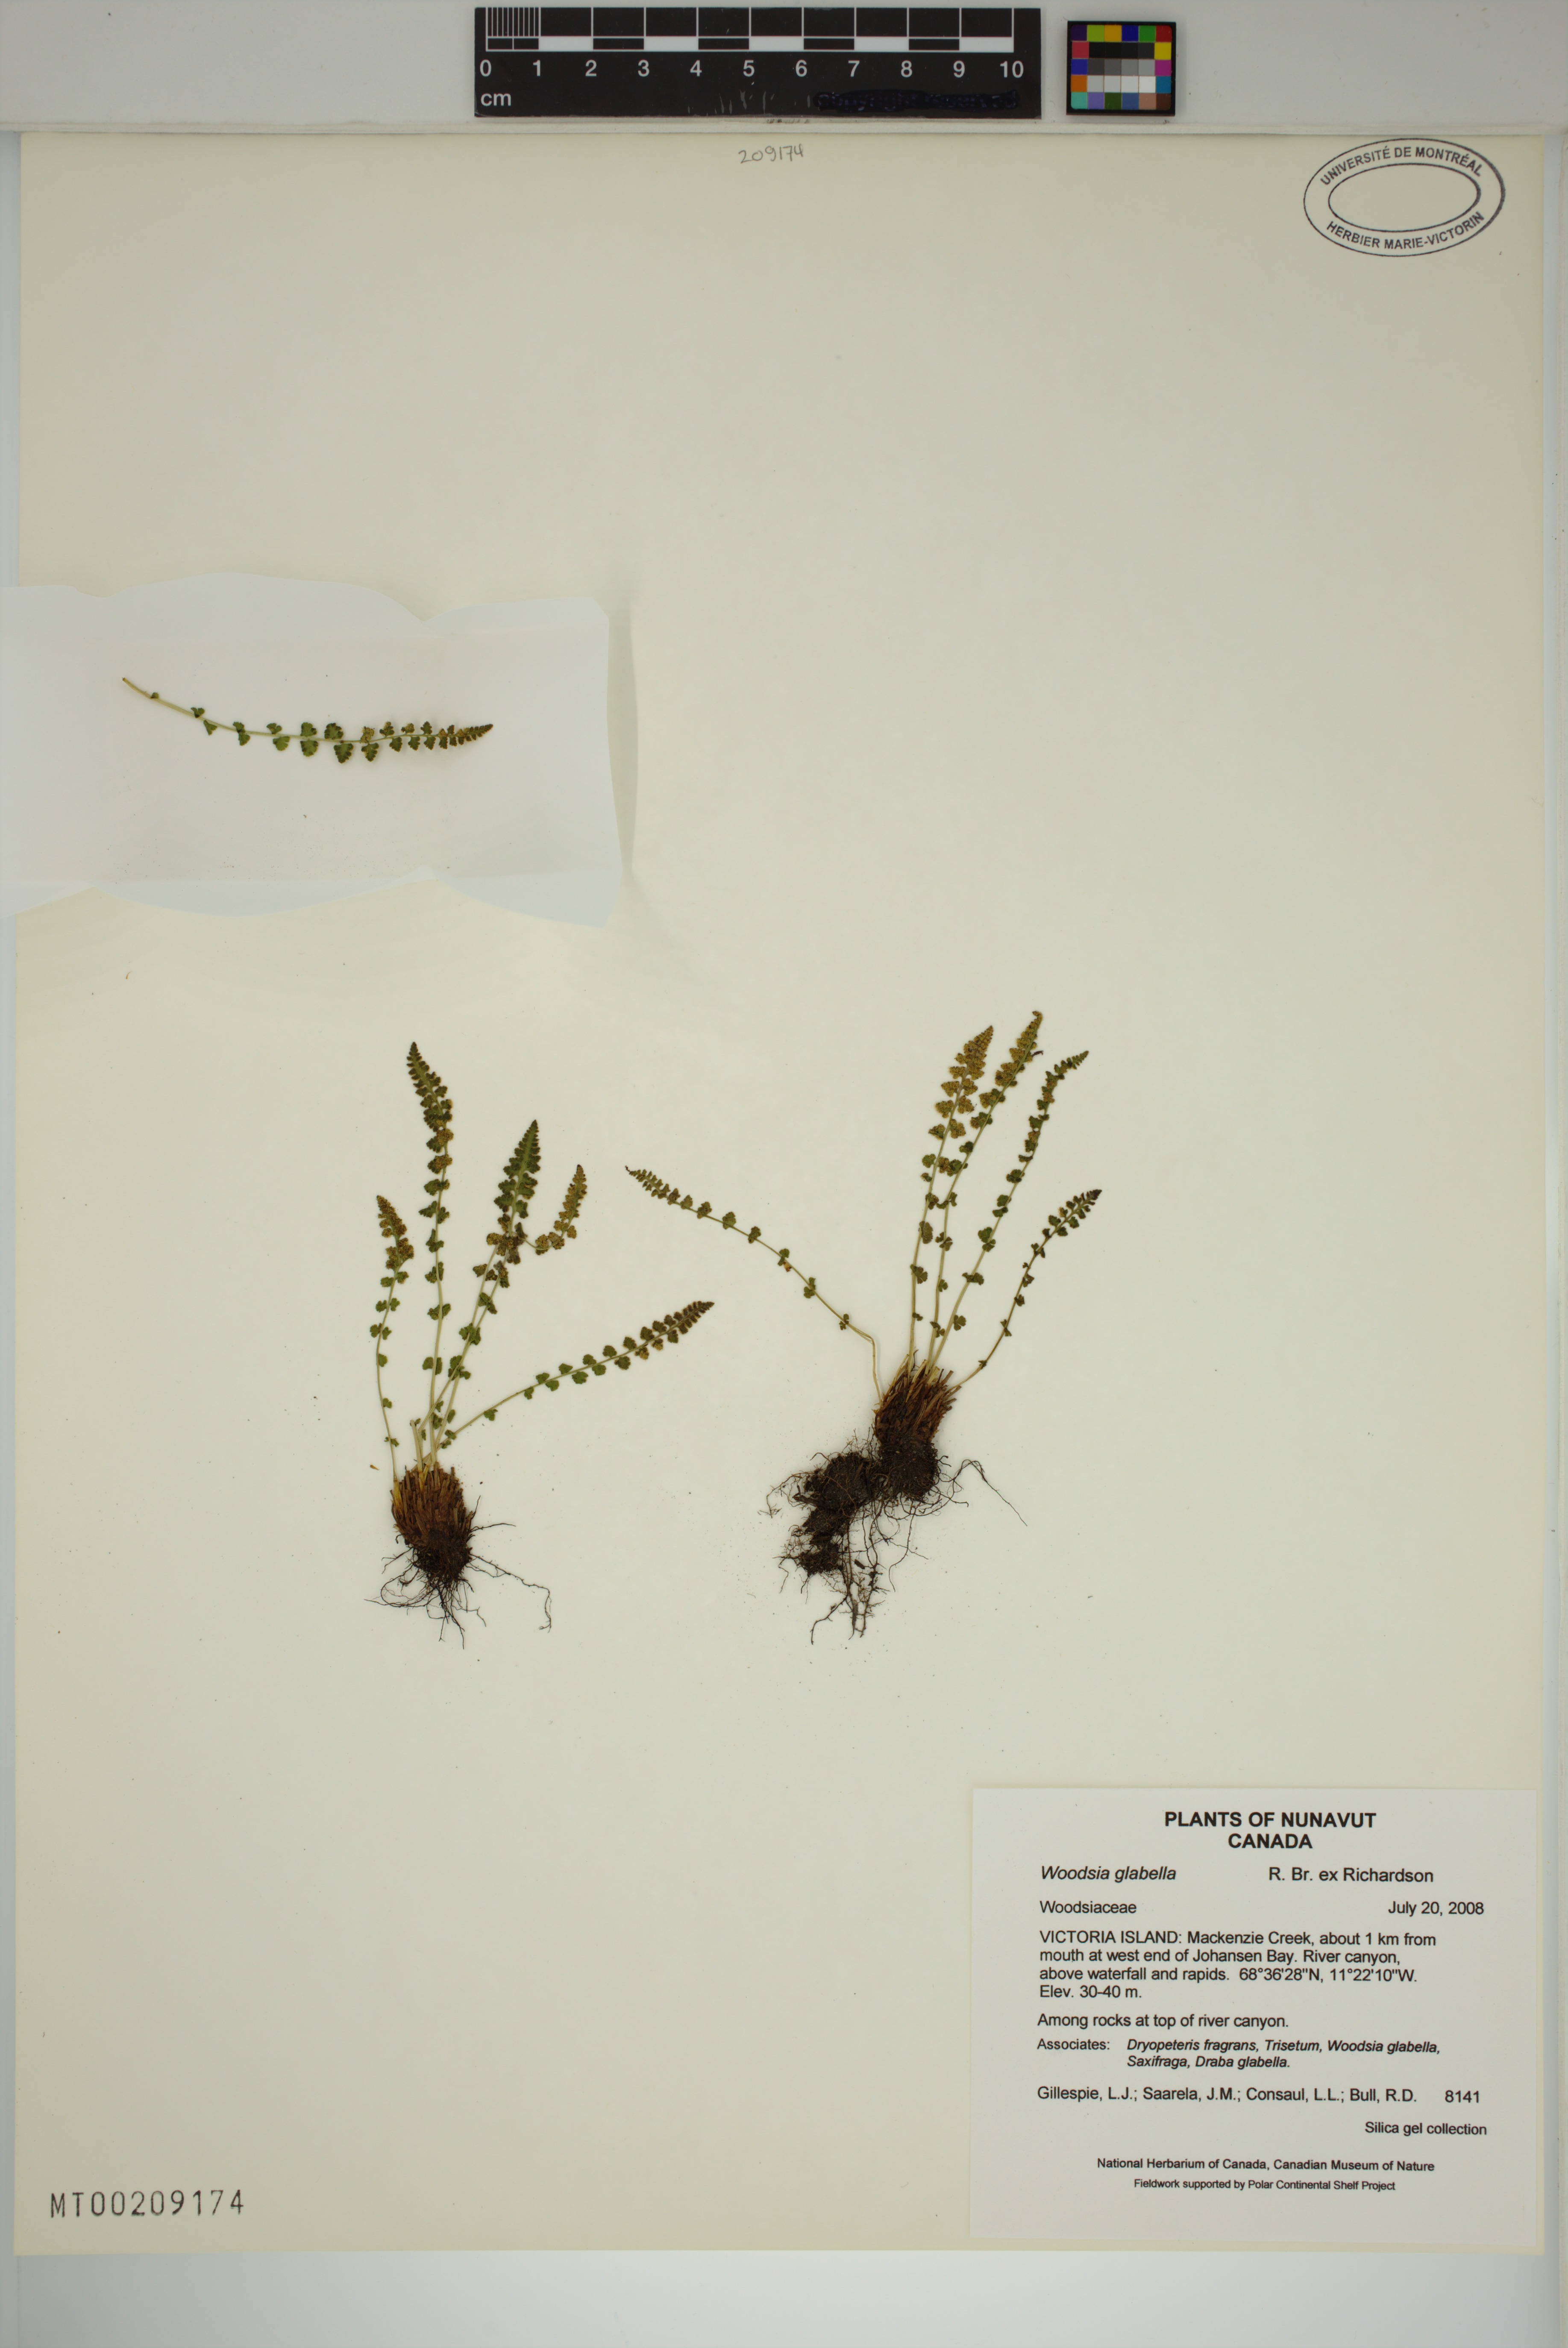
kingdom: Plantae
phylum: Tracheophyta
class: Polypodiopsida
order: Polypodiales
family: Woodsiaceae
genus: Woodsia
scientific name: Woodsia glabella
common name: Smooth woodsia
